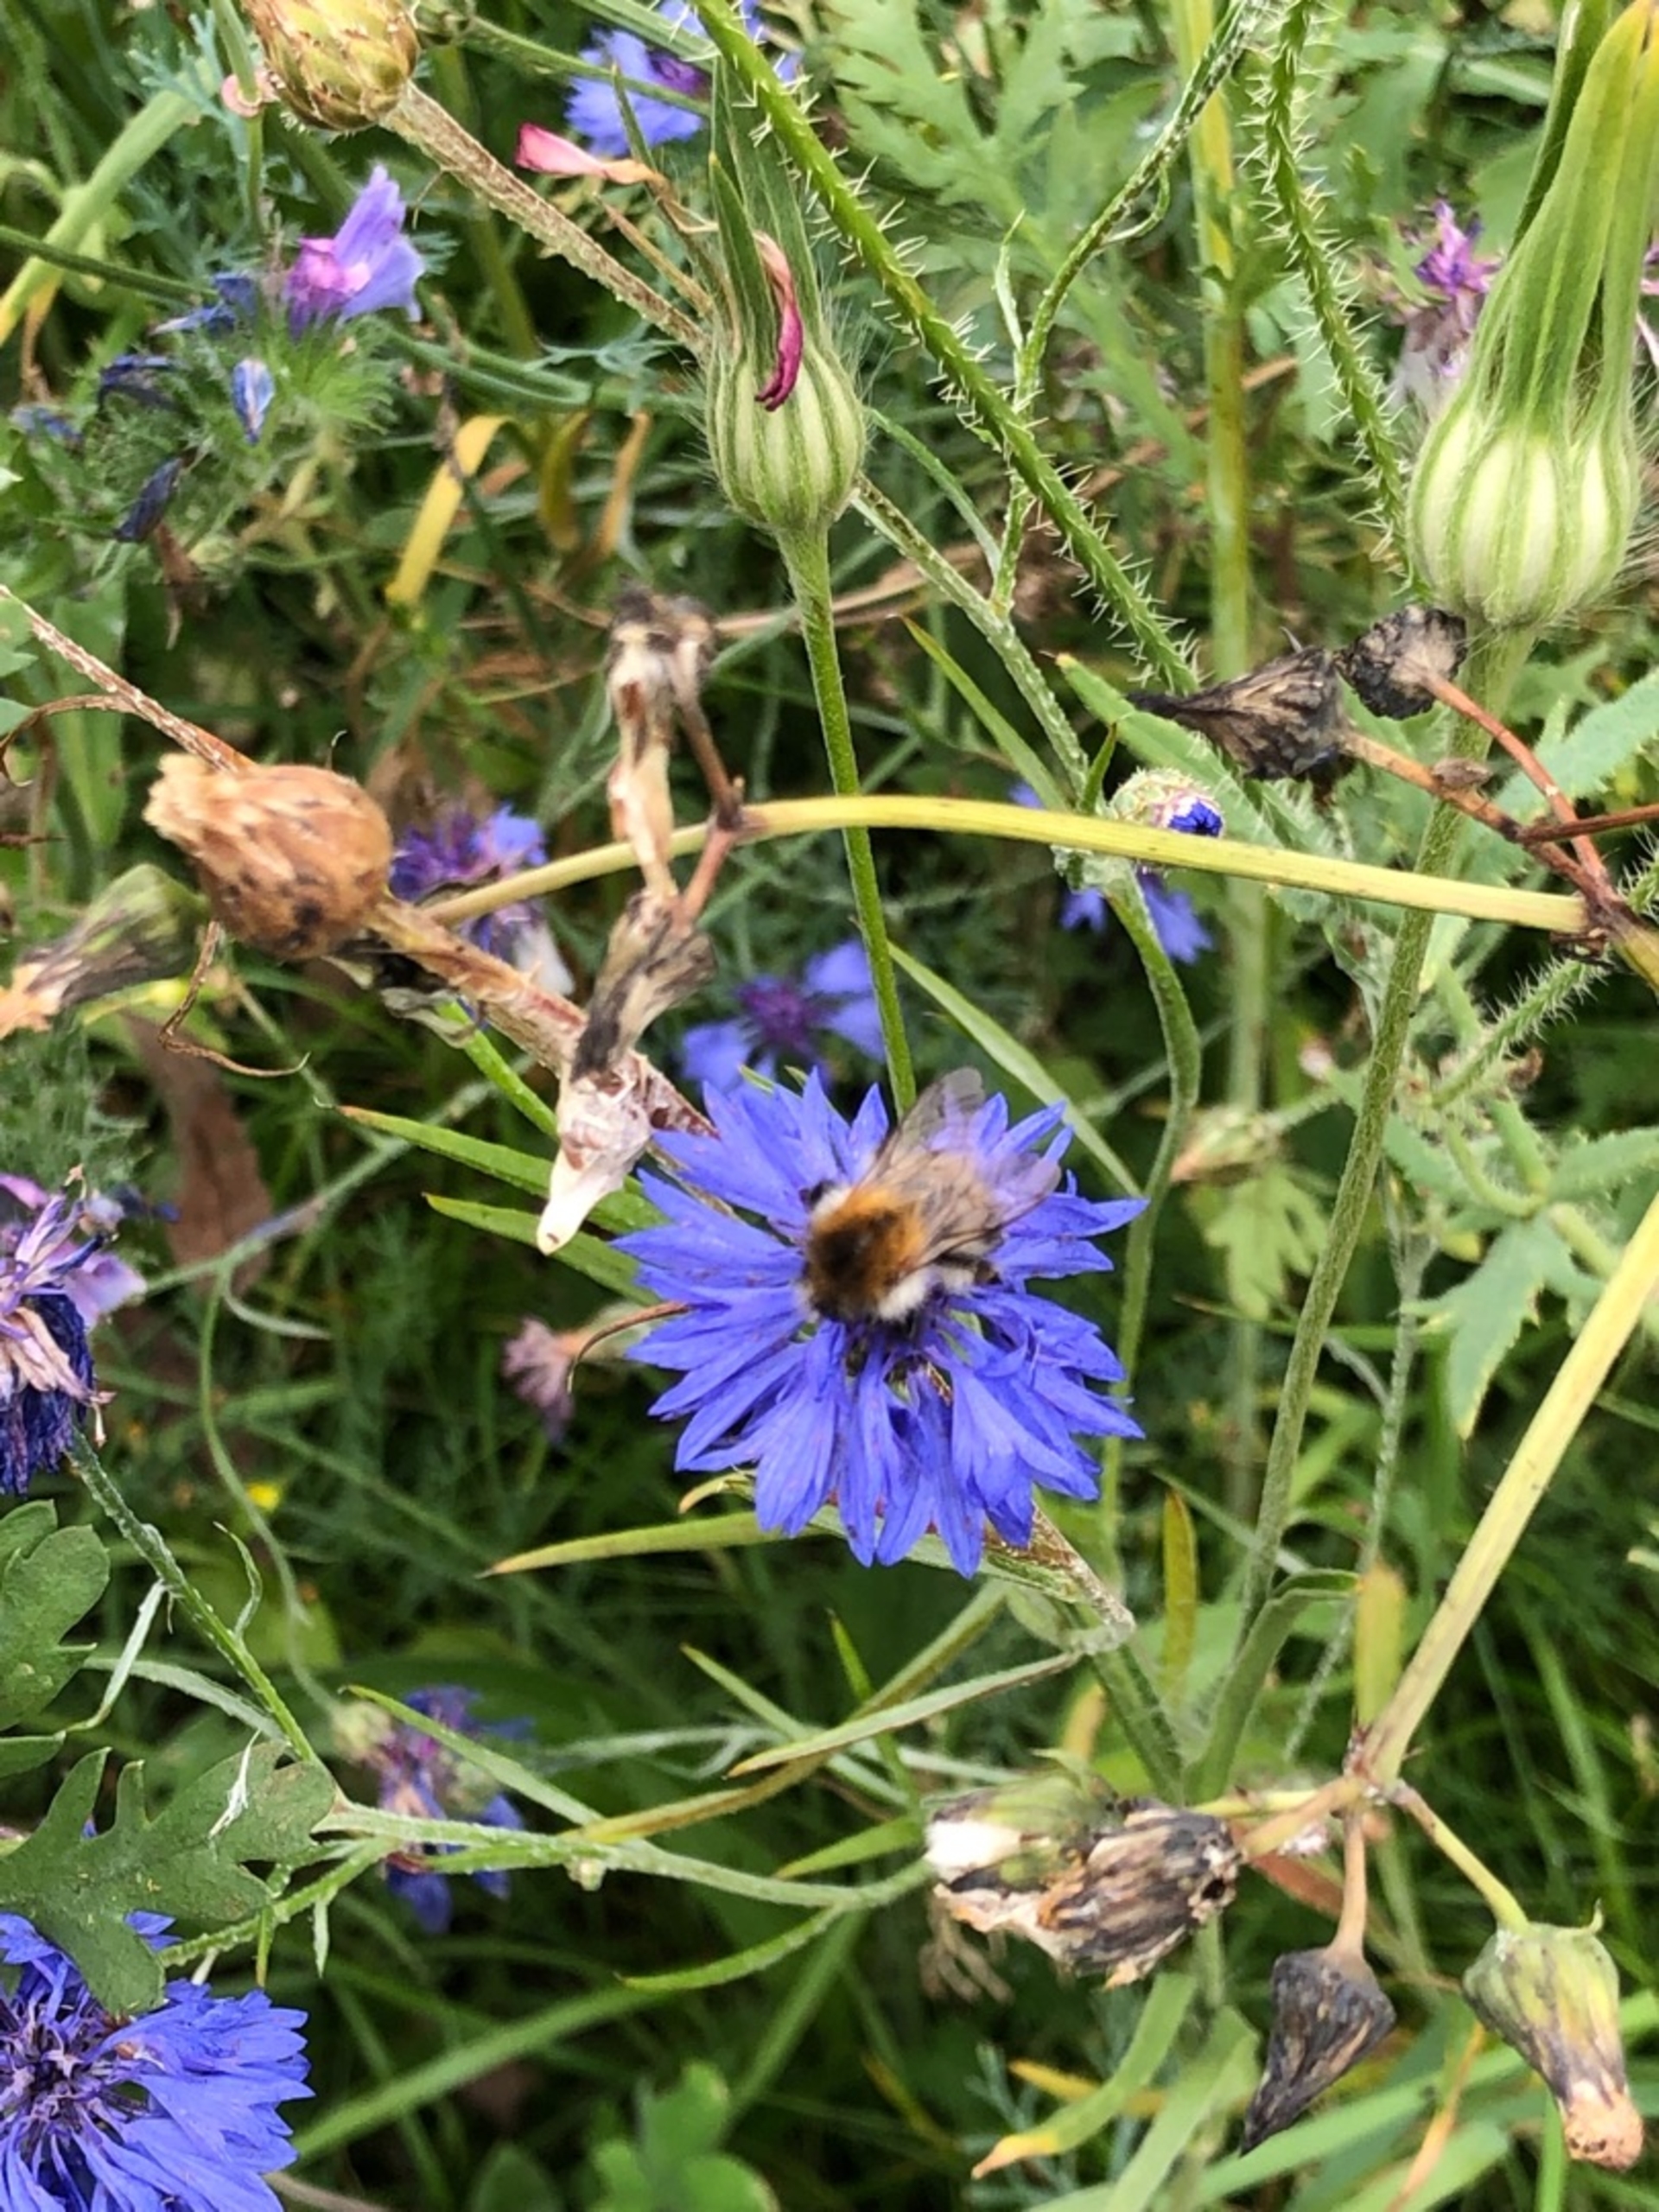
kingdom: Animalia
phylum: Arthropoda
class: Insecta
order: Hymenoptera
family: Apidae
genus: Bombus
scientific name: Bombus pascuorum
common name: Agerhumle
